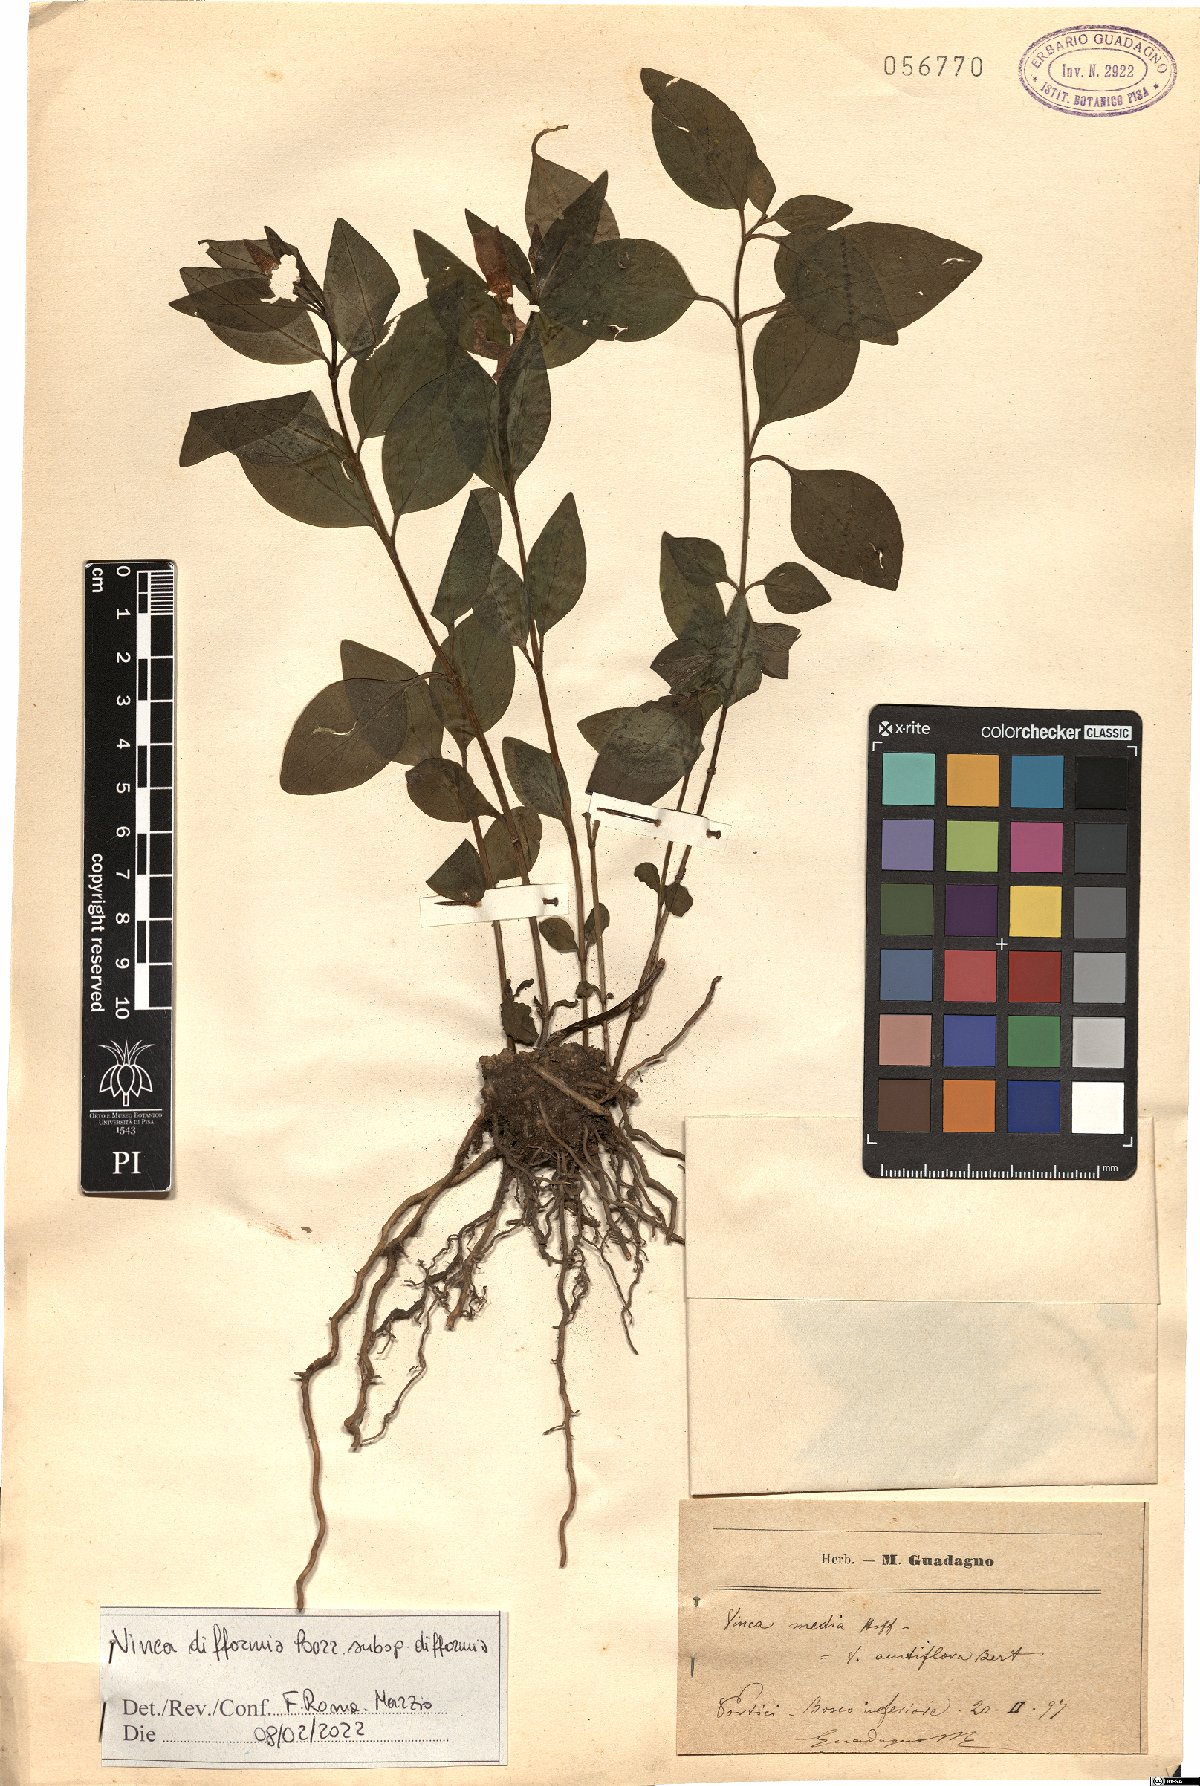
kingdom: Plantae
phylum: Tracheophyta
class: Magnoliopsida
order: Gentianales
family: Apocynaceae
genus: Vinca
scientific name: Vinca difformis
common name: Intermediate periwinkle
